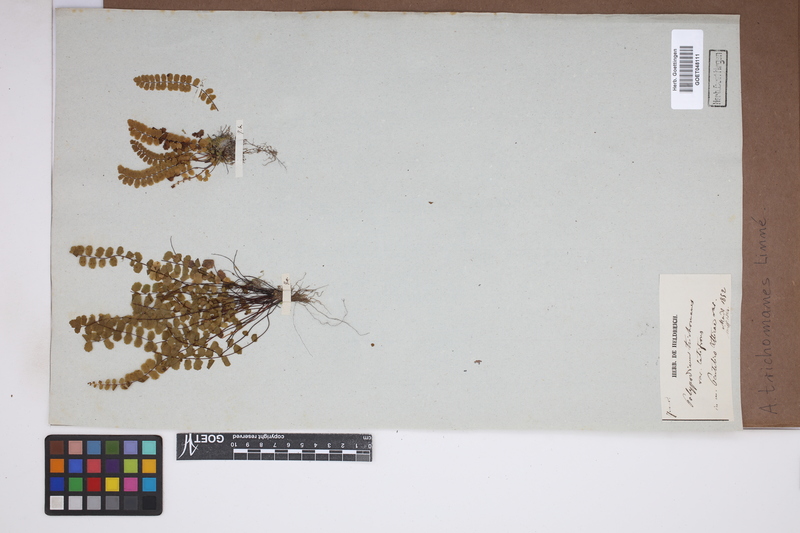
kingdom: Plantae
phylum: Tracheophyta
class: Polypodiopsida
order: Polypodiales
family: Aspleniaceae
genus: Asplenium
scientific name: Asplenium trichomanes
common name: Maidenhair spleenwort
